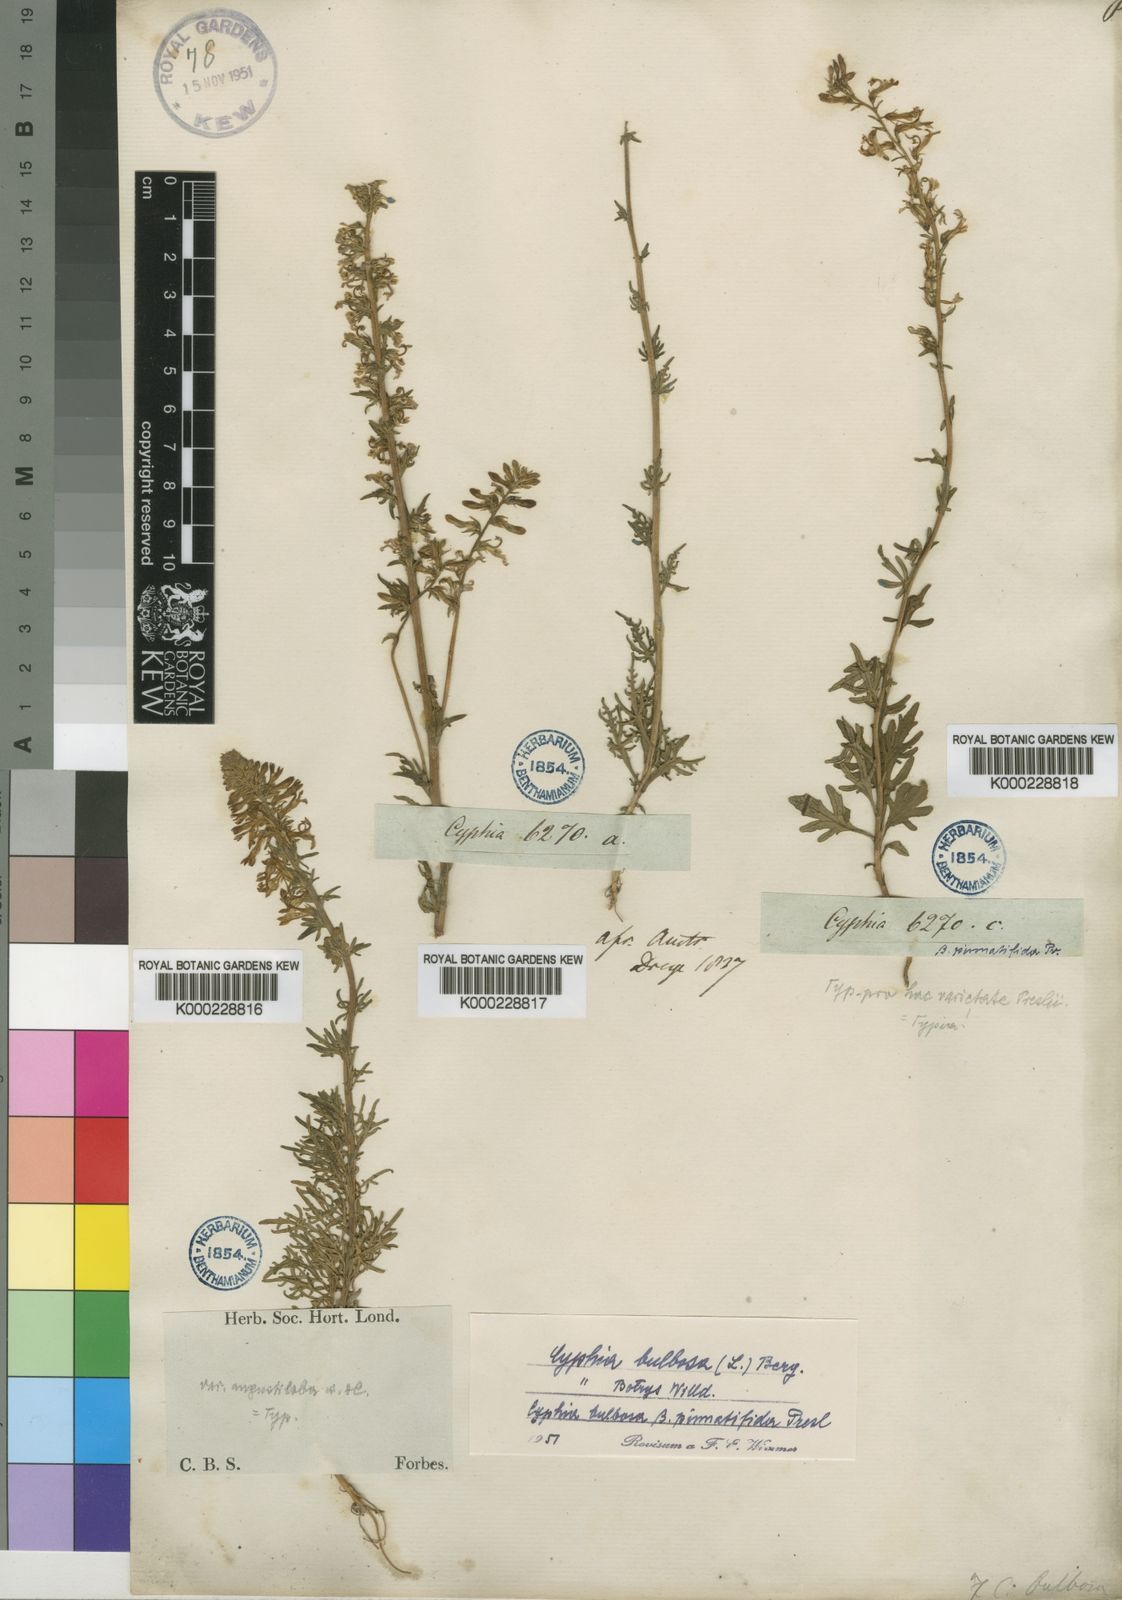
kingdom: Plantae
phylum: Tracheophyta
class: Magnoliopsida
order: Asterales
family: Campanulaceae
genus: Cyphia
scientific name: Cyphia bulbosa
